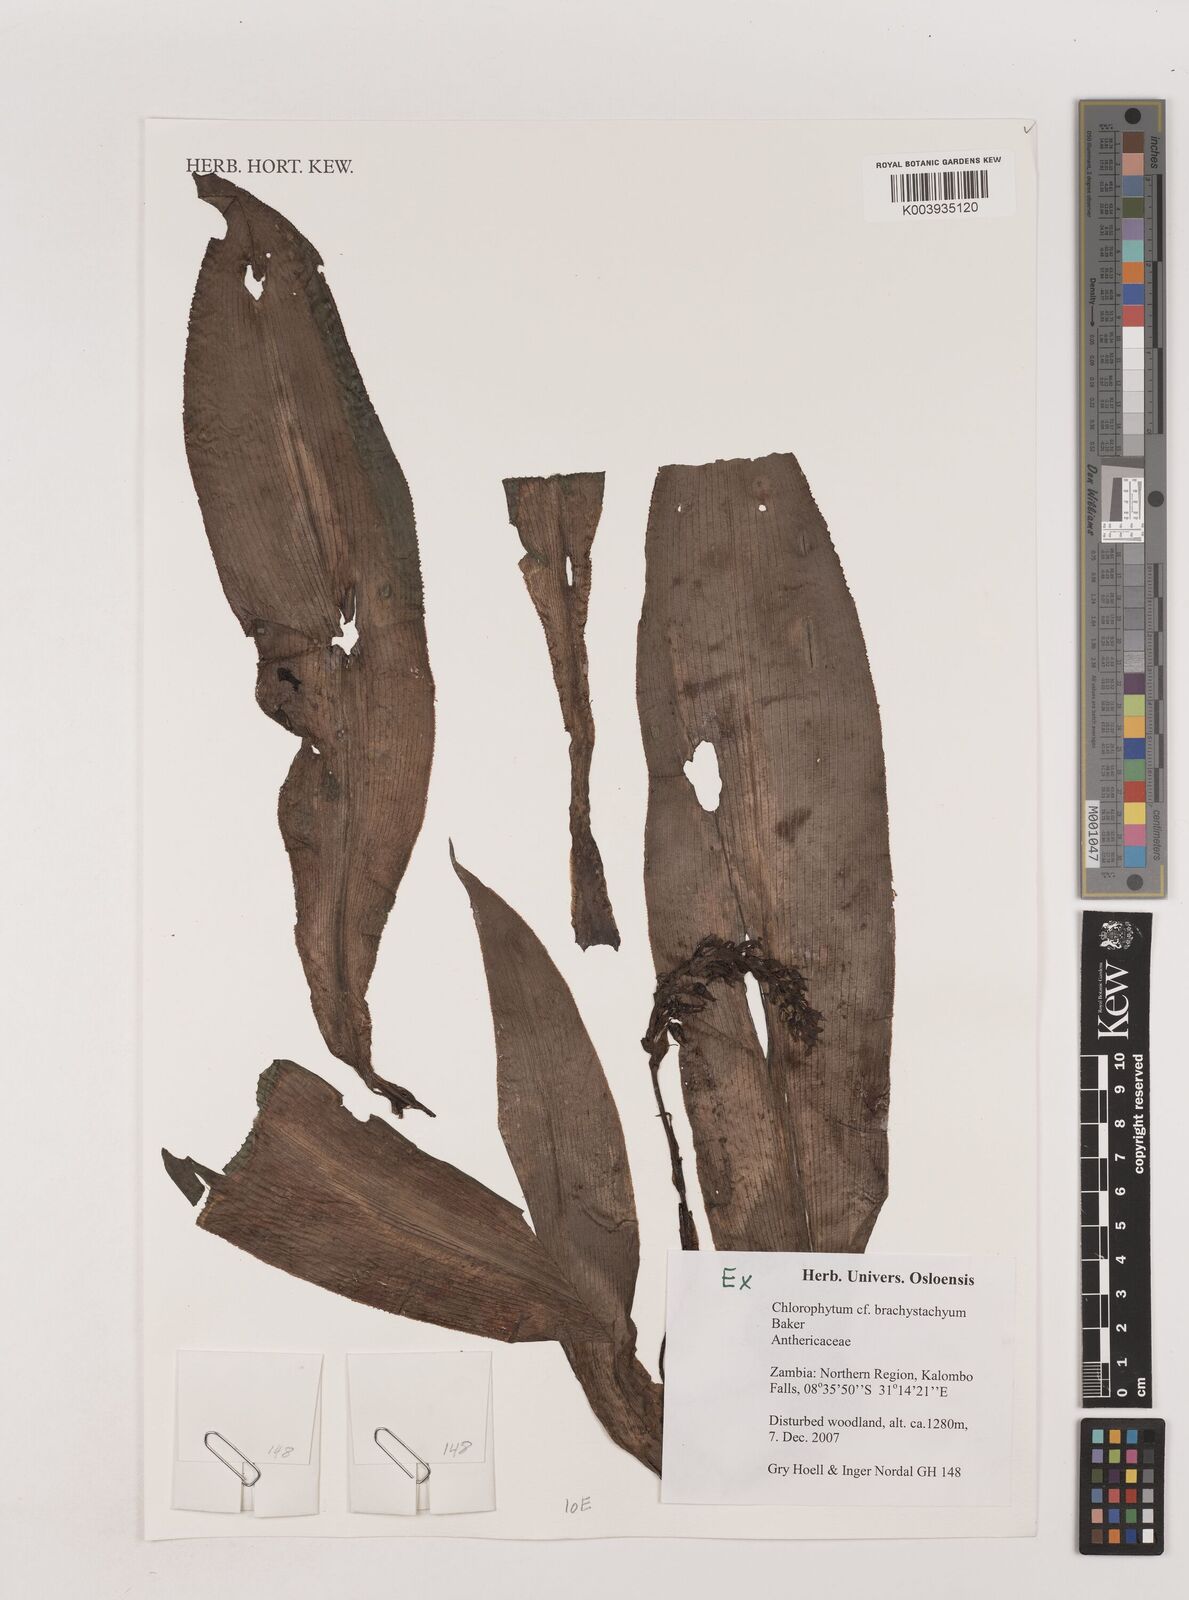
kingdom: Plantae
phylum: Tracheophyta
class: Liliopsida
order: Asparagales
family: Asparagaceae
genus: Chlorophytum
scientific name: Chlorophytum brachystachyum
